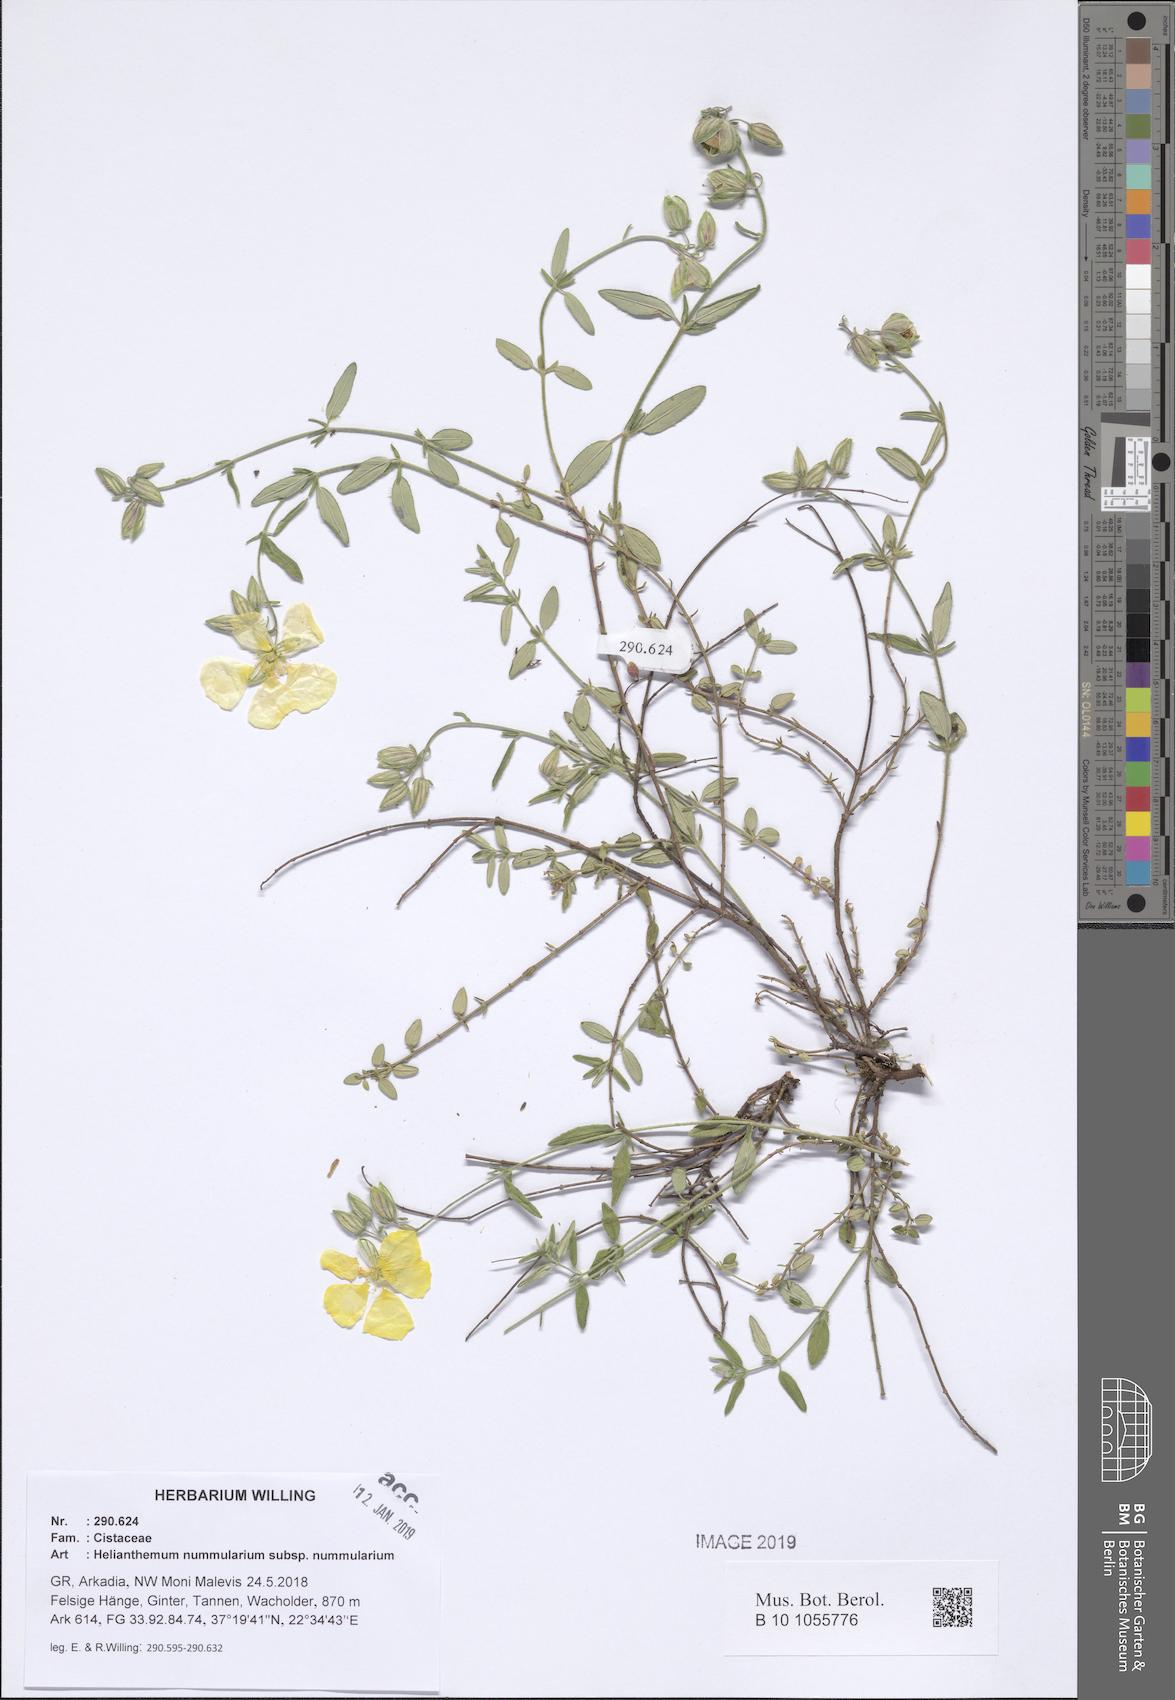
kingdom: Plantae
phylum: Tracheophyta
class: Magnoliopsida
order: Malvales
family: Cistaceae
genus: Helianthemum
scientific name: Helianthemum nummularium
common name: Common rock-rose
